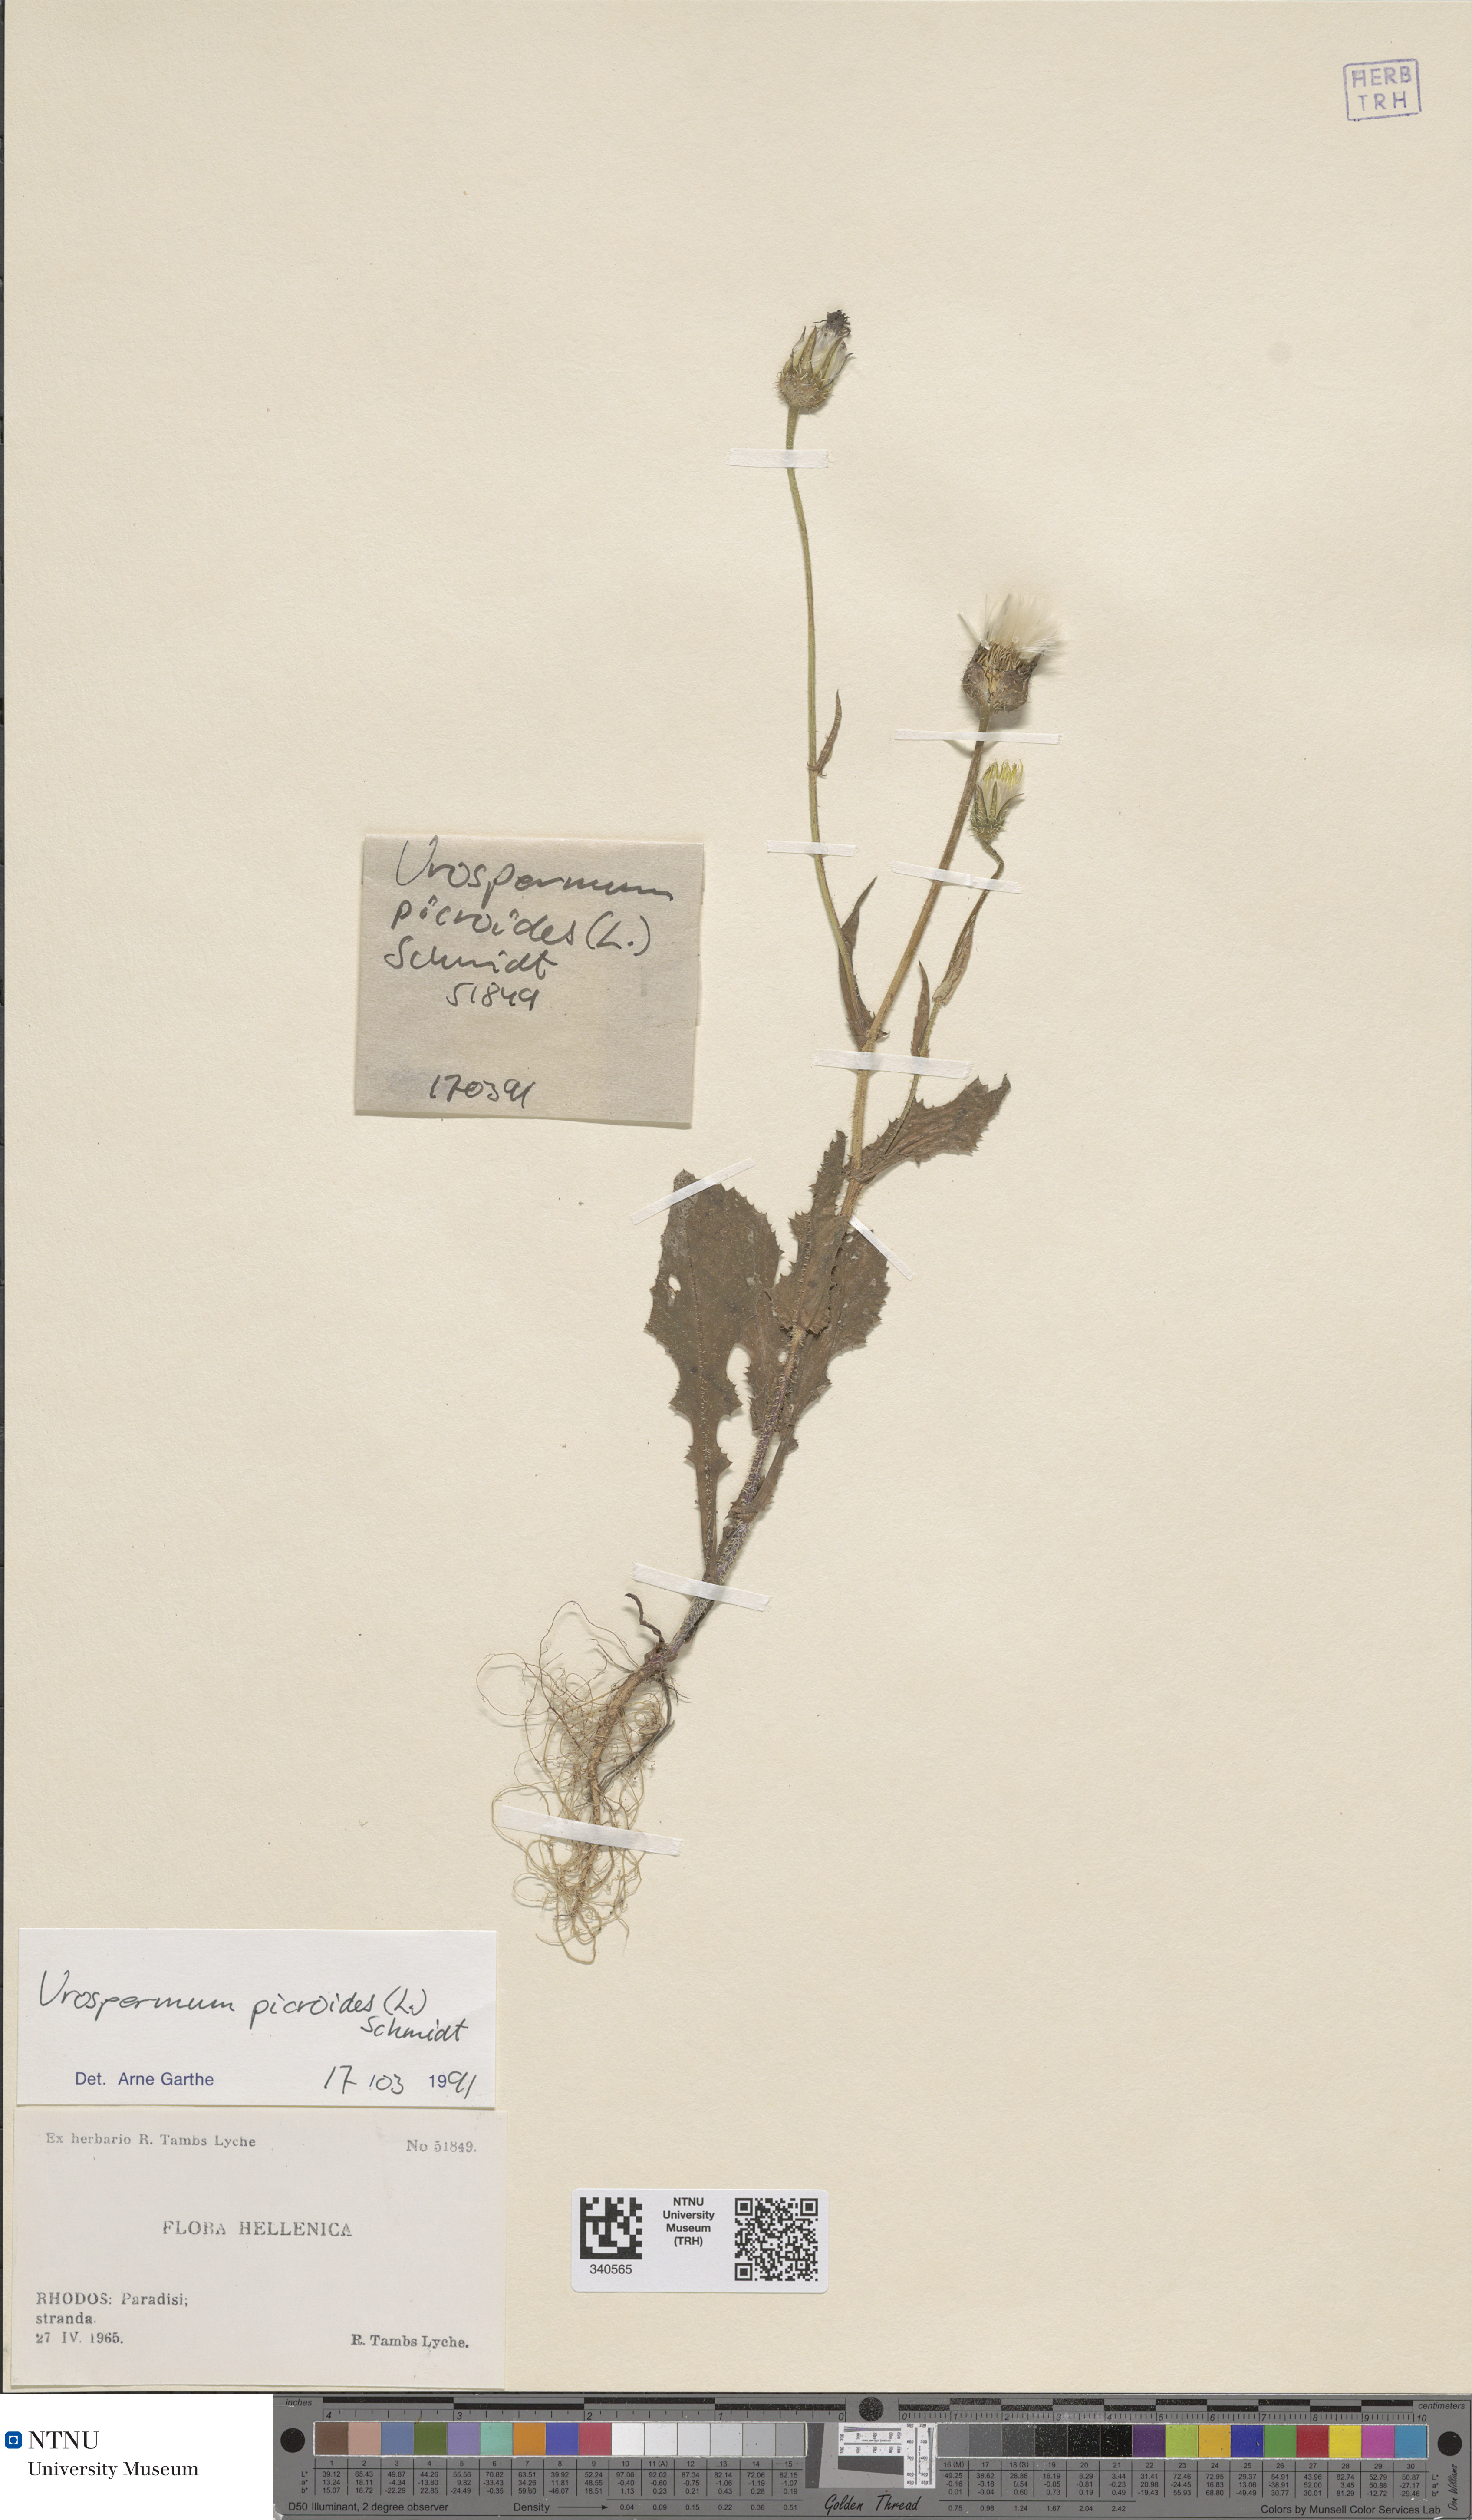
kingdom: Plantae
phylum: Tracheophyta
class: Magnoliopsida
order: Asterales
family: Asteraceae
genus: Urospermum
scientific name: Urospermum picroides
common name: False hawkbit
